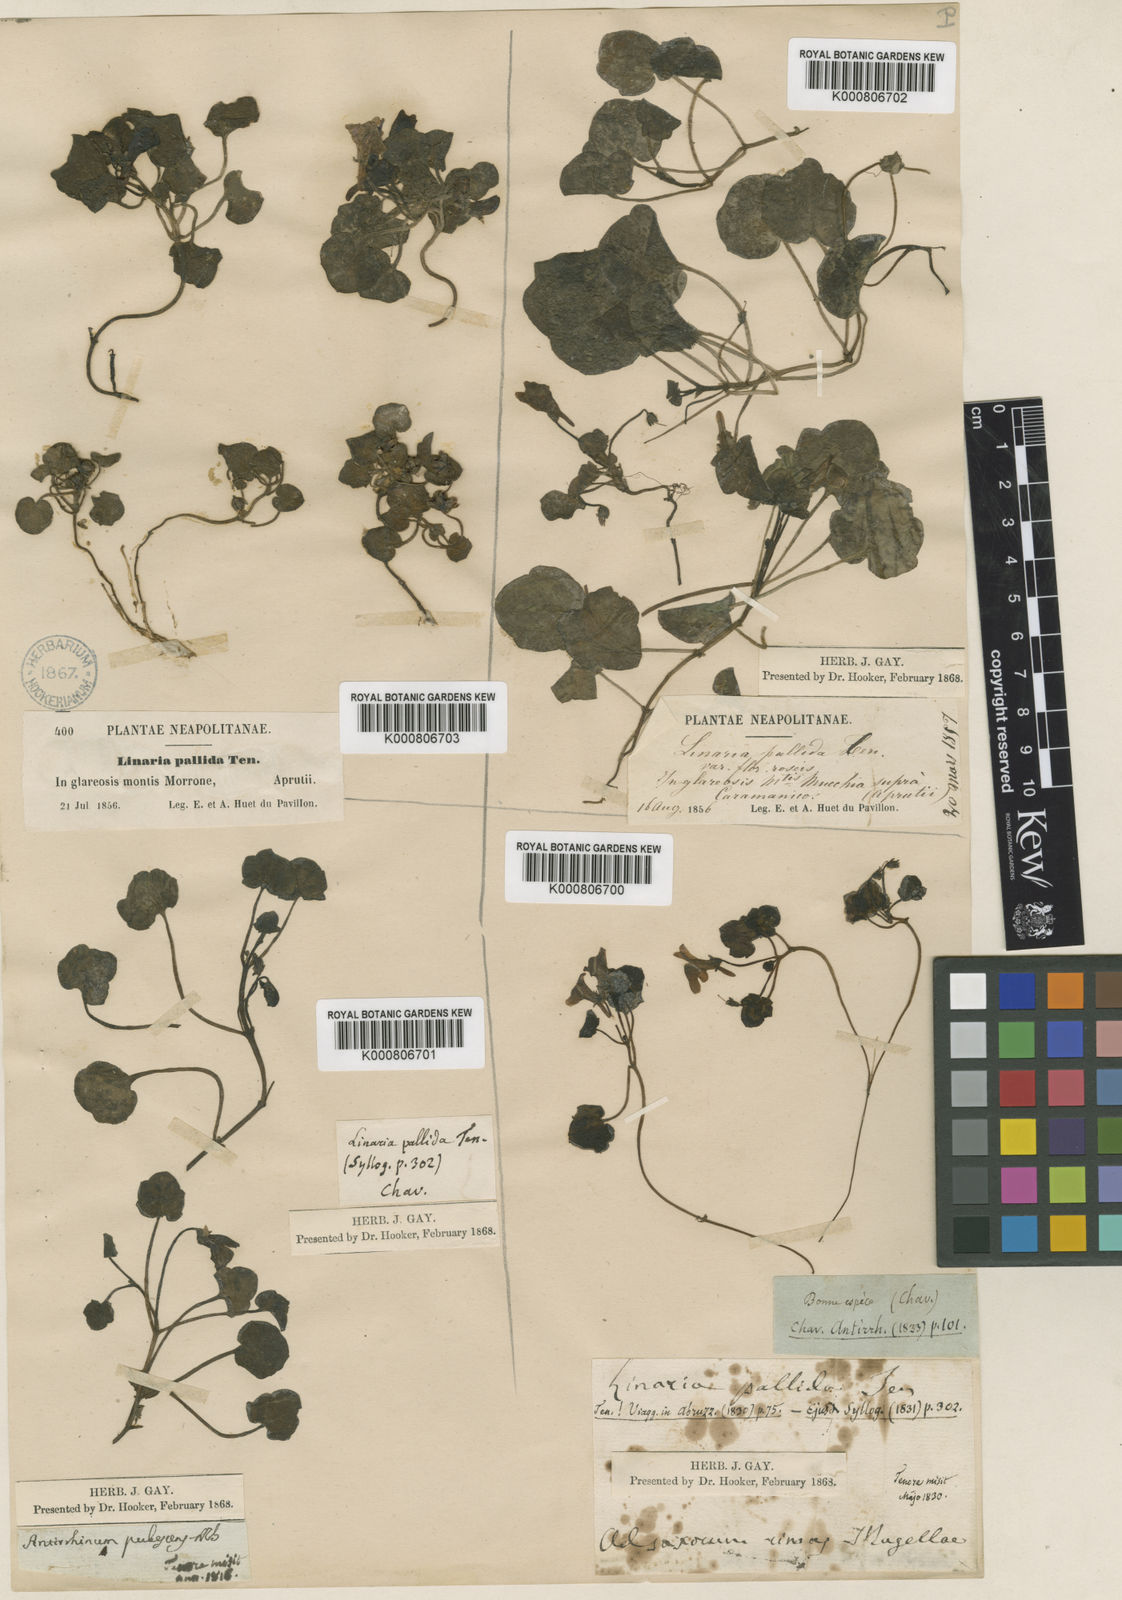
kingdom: Plantae
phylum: Tracheophyta
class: Magnoliopsida
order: Lamiales
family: Plantaginaceae
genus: Cymbalaria
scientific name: Cymbalaria pallida
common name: Italian toadflax
